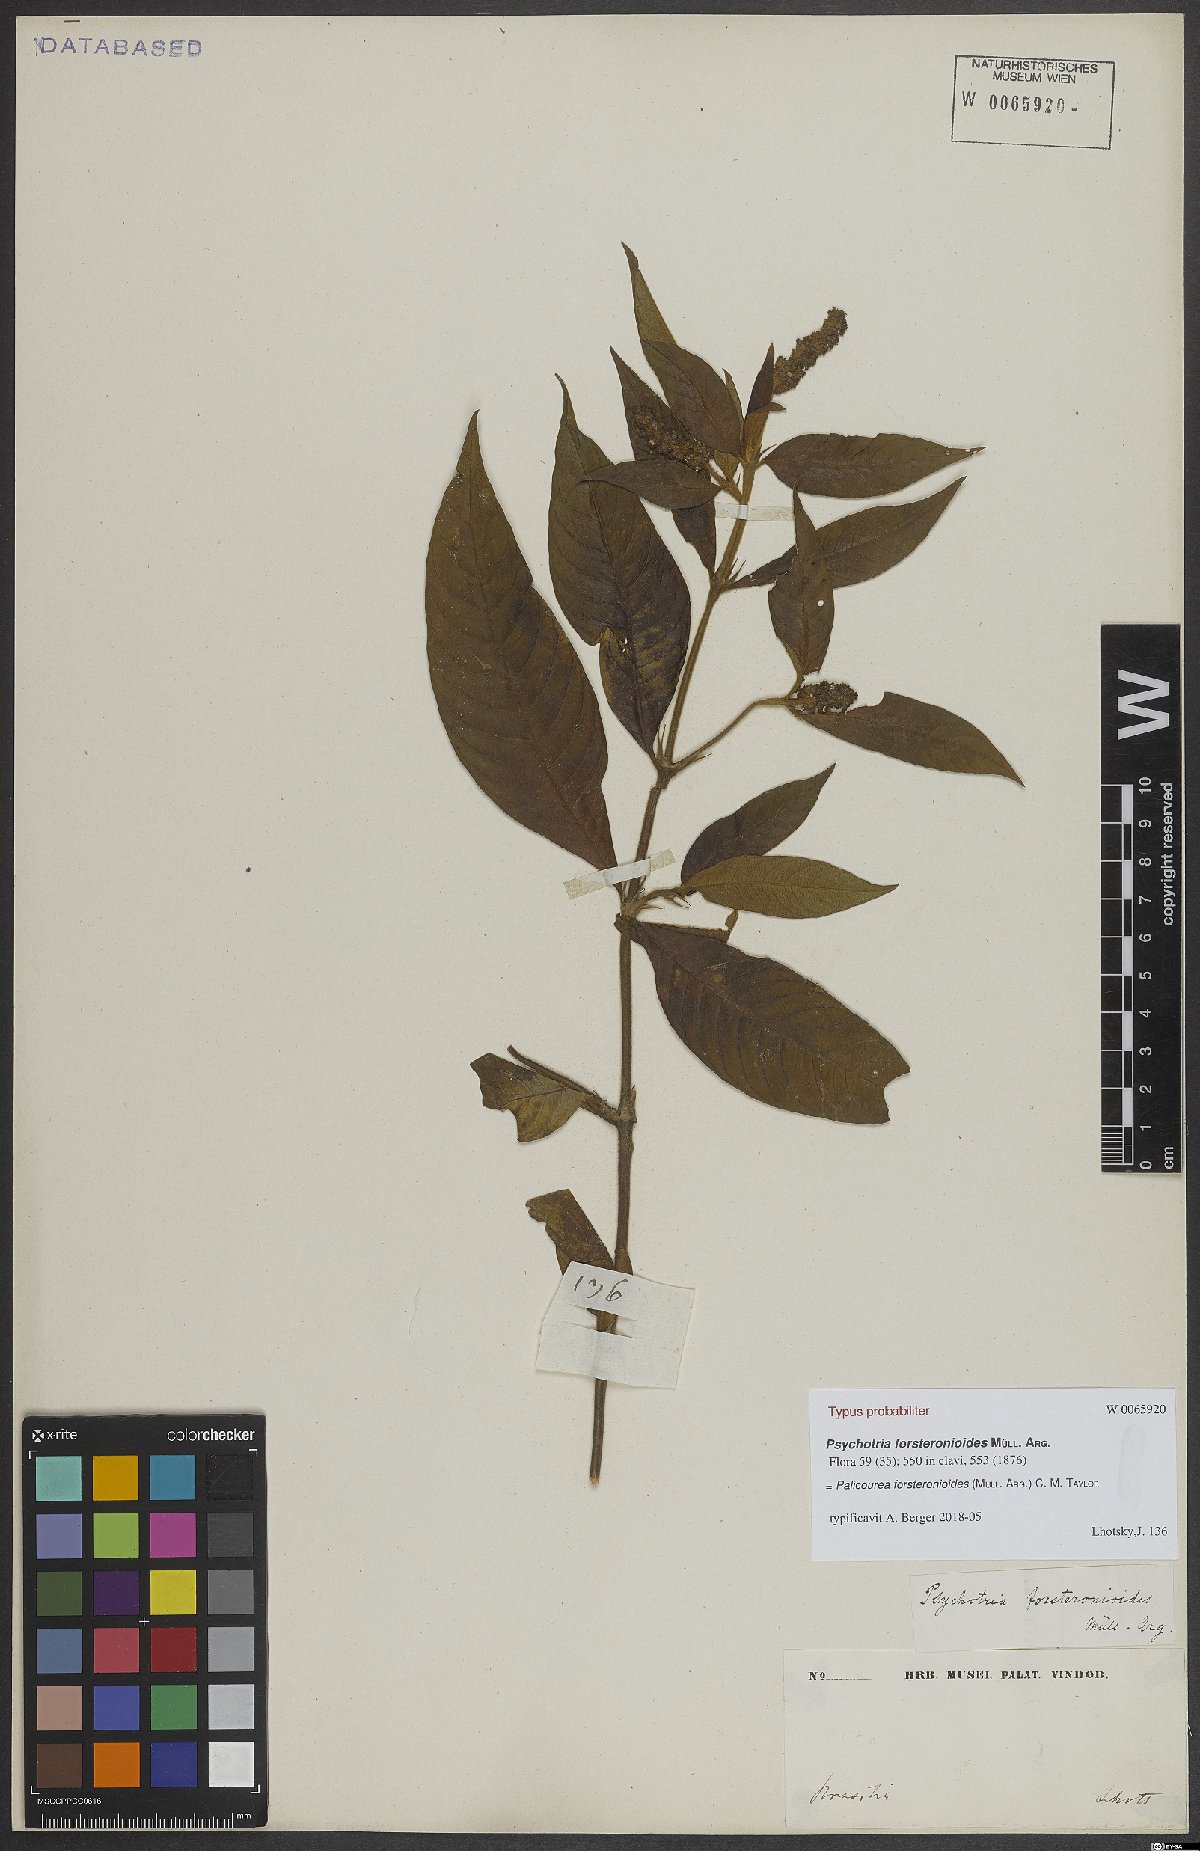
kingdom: Plantae
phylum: Tracheophyta
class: Magnoliopsida
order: Gentianales
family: Rubiaceae
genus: Palicourea
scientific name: Palicourea forsteronioides
